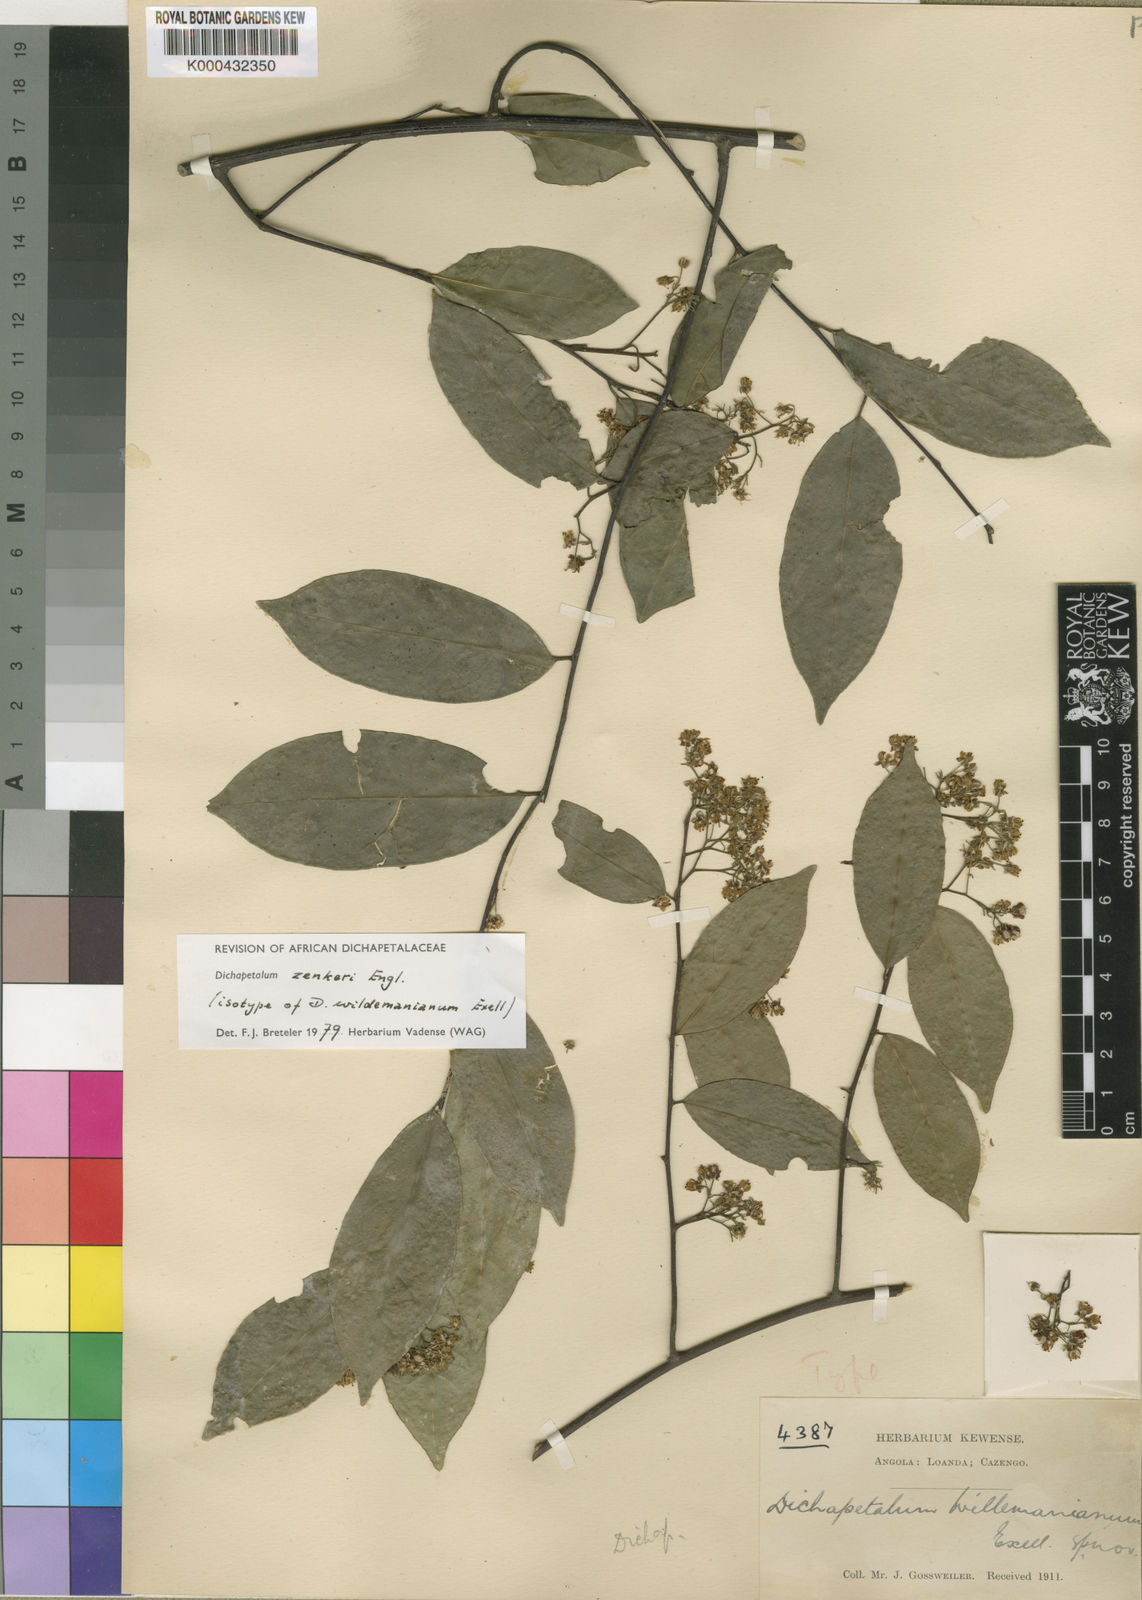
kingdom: Plantae
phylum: Tracheophyta
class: Magnoliopsida
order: Malpighiales
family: Dichapetalaceae
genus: Dichapetalum
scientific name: Dichapetalum zenkeri
